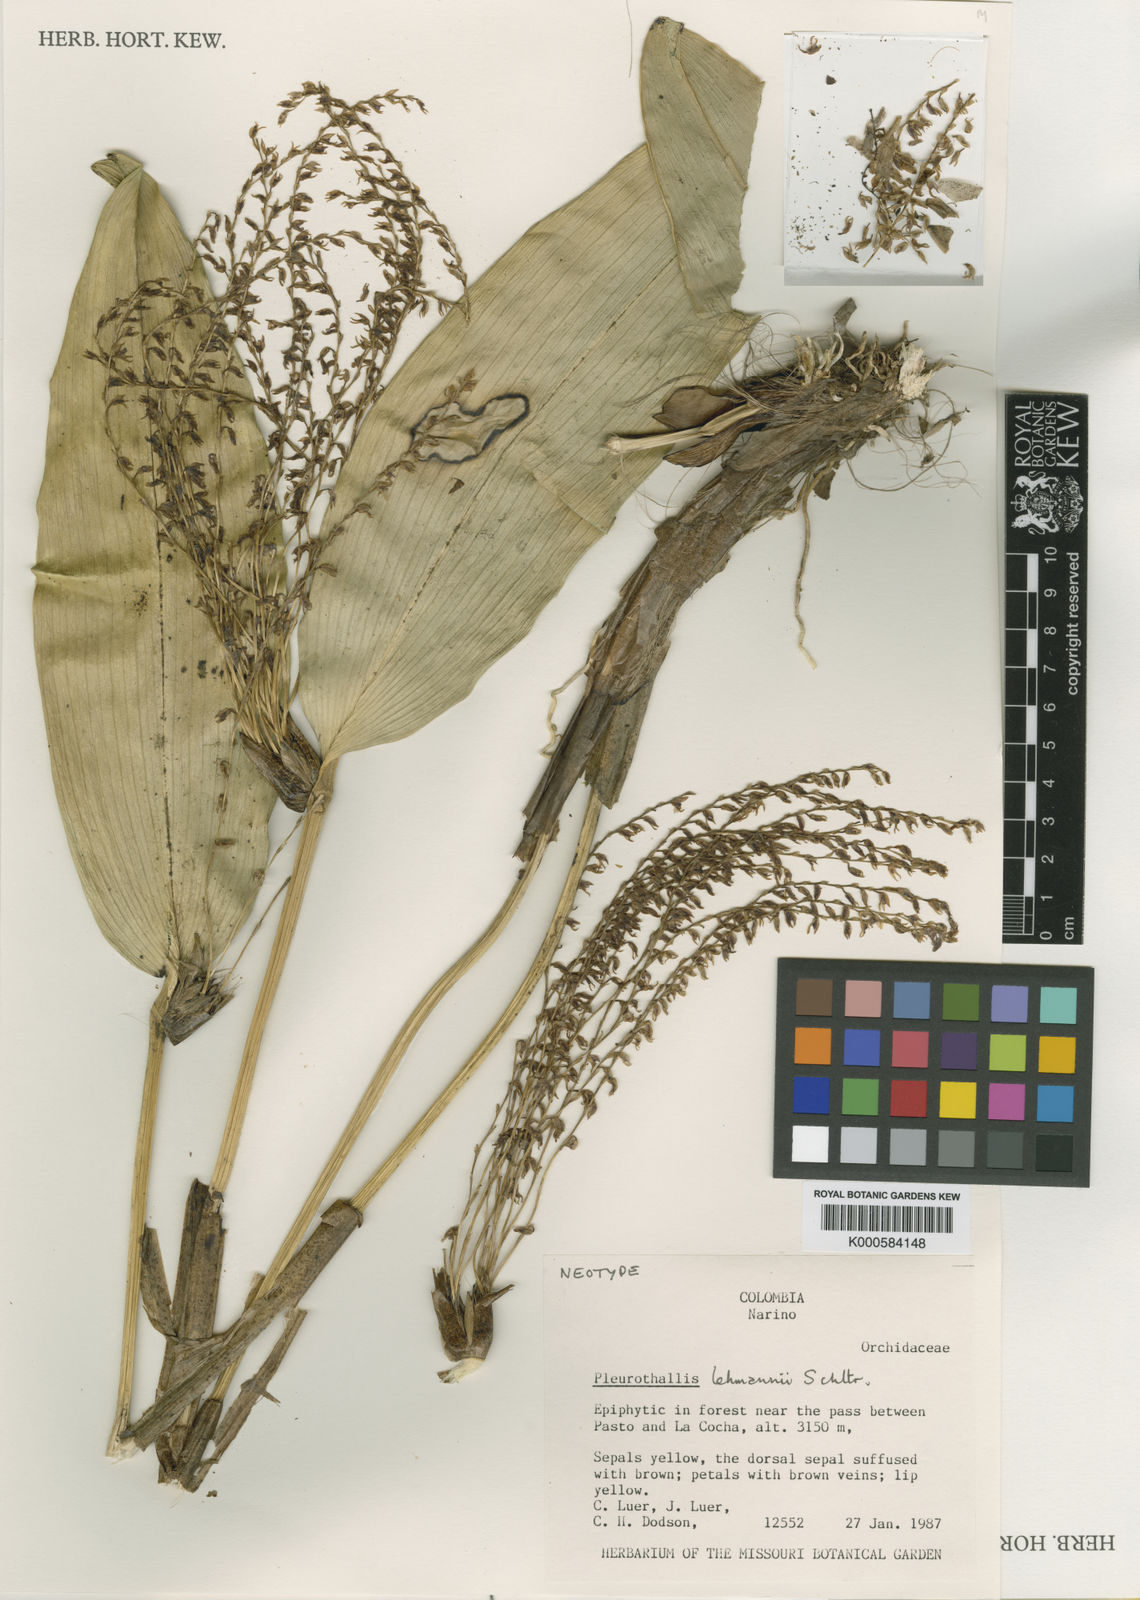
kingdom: Plantae
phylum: Tracheophyta
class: Liliopsida
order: Asparagales
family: Orchidaceae
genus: Pleurothallis
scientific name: Pleurothallis
